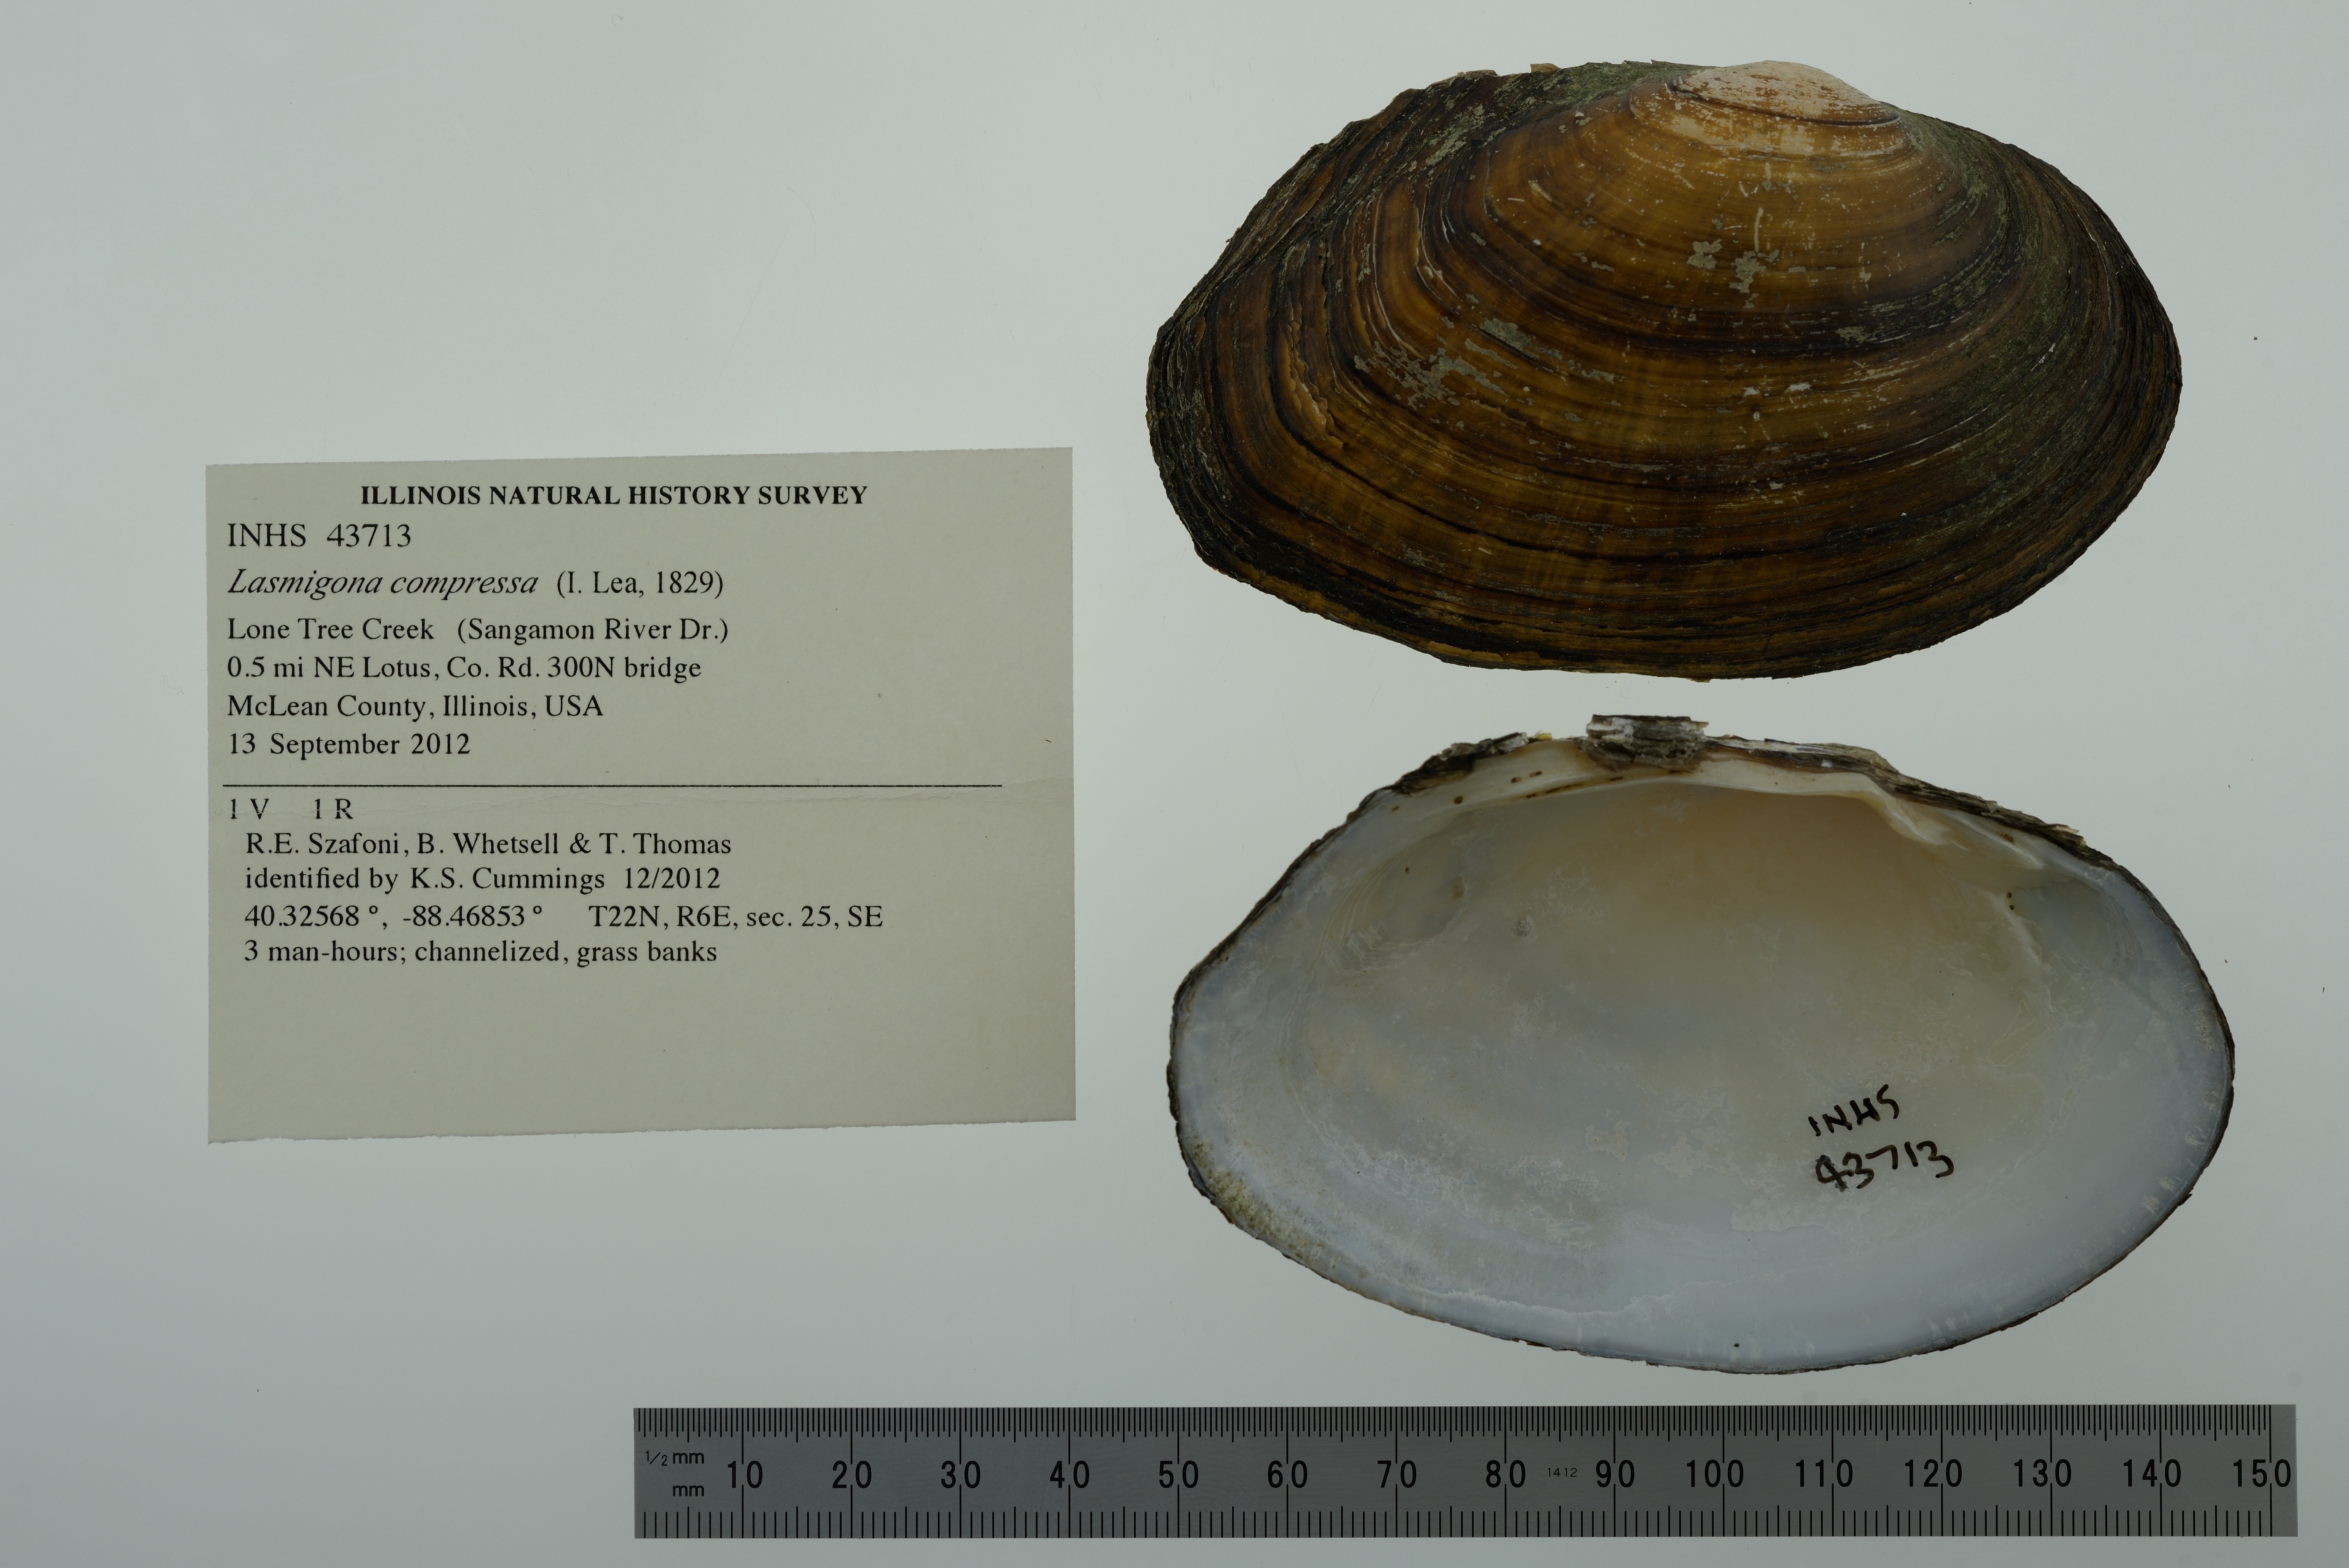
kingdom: Animalia
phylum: Mollusca
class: Bivalvia
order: Unionida
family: Unionidae
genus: Lasmigona
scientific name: Lasmigona compressa
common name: Creek heelsplitter
